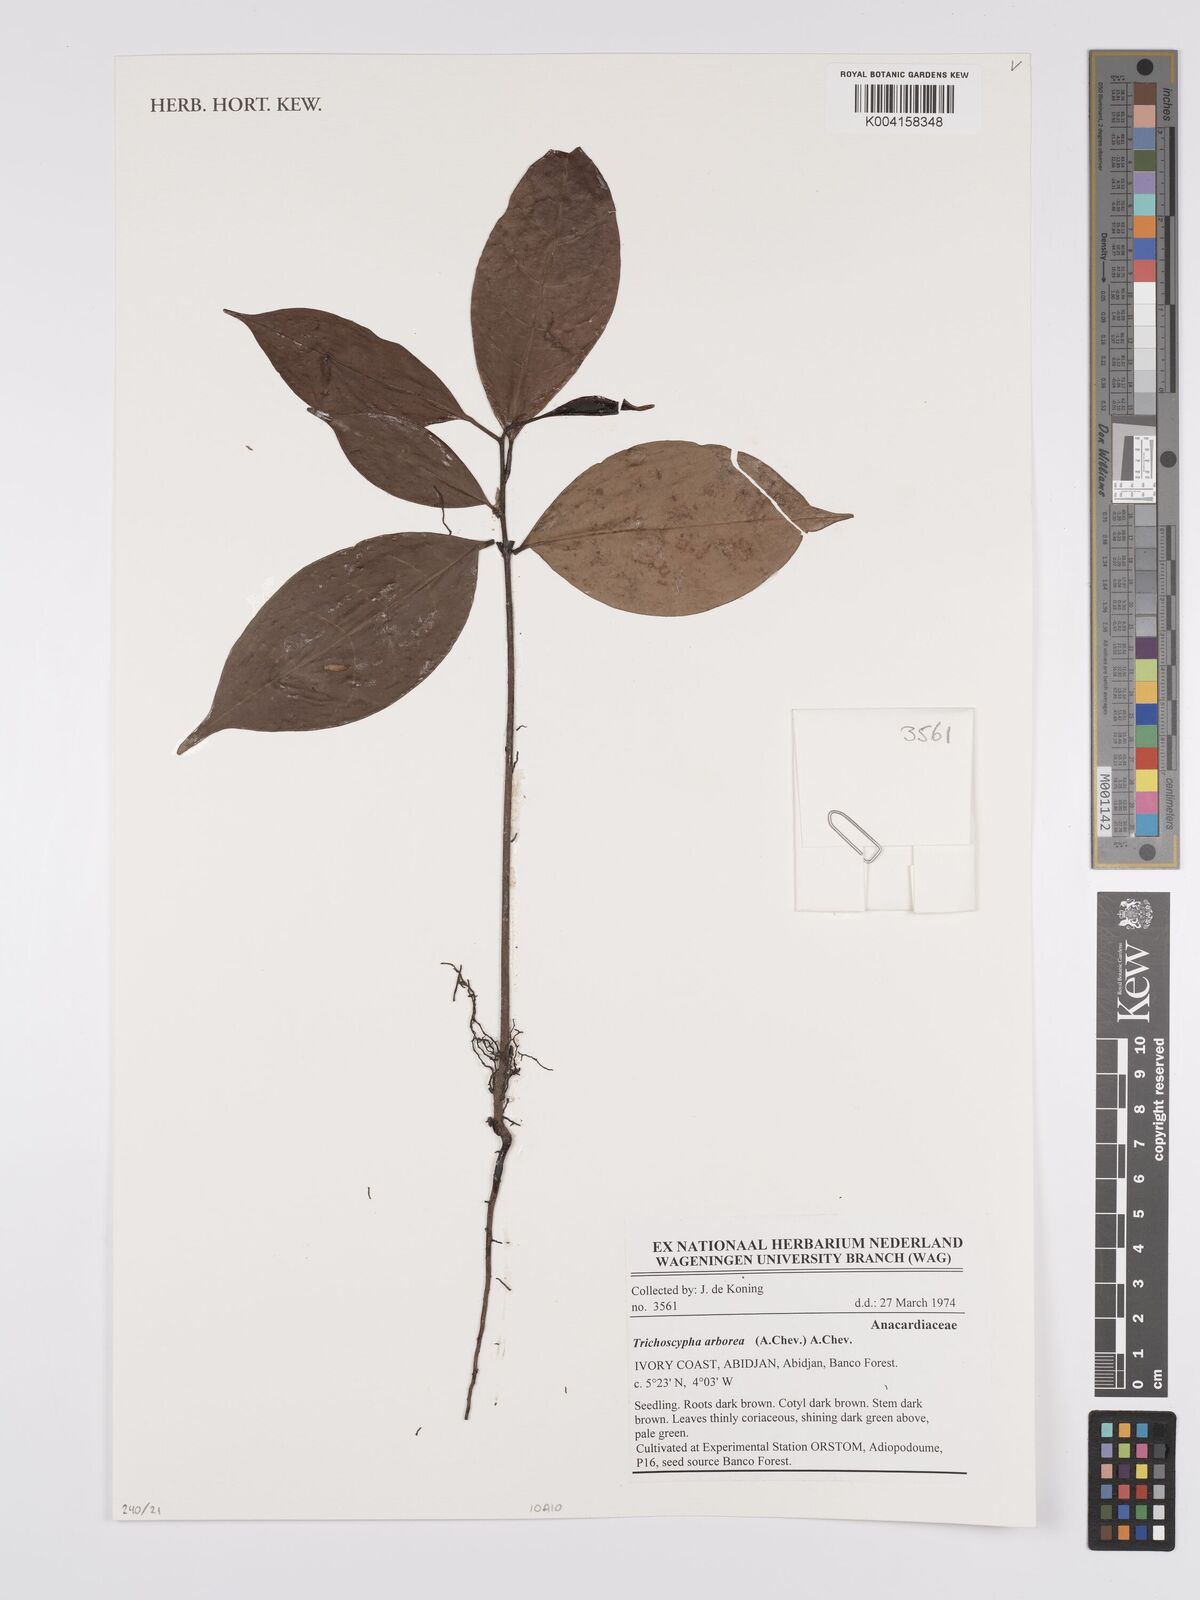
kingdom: Plantae
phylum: Tracheophyta
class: Magnoliopsida
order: Sapindales
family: Anacardiaceae
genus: Trichoscypha
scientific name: Trichoscypha arborea
